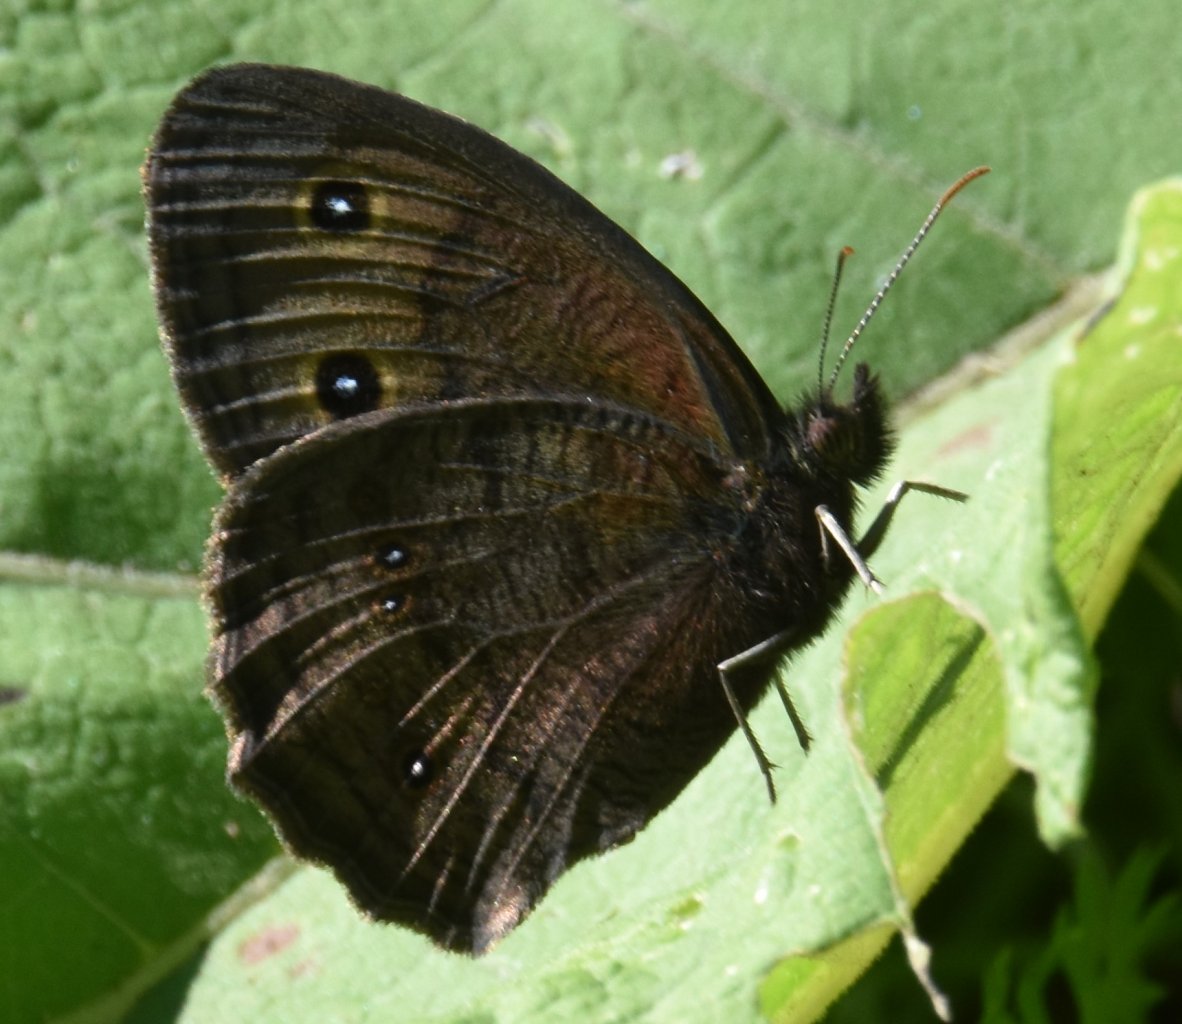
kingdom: Animalia
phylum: Arthropoda
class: Insecta
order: Lepidoptera
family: Nymphalidae
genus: Cercyonis
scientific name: Cercyonis pegala
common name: Common Wood-Nymph
